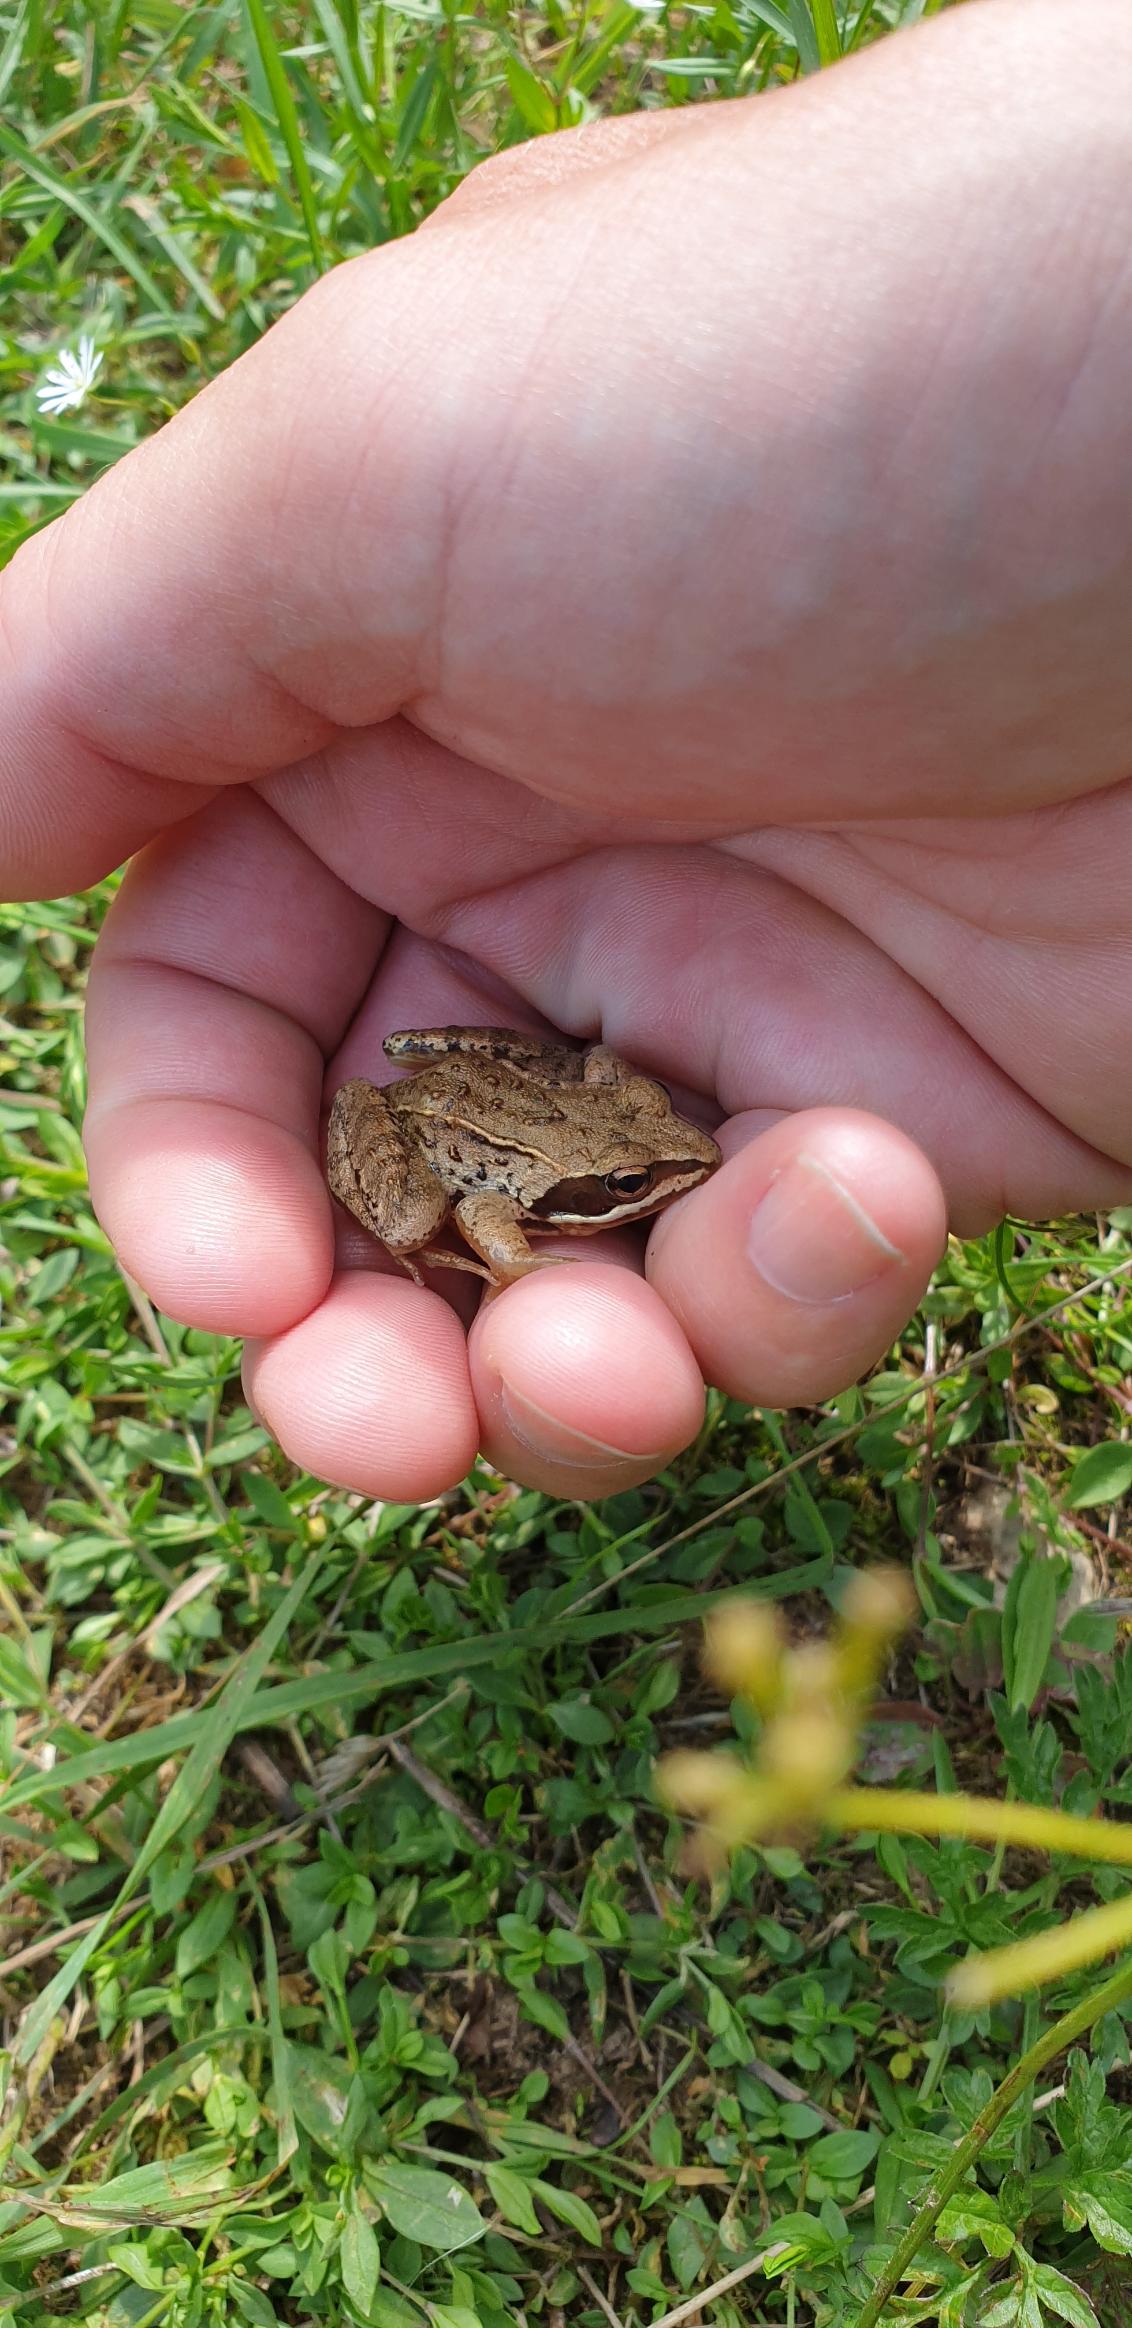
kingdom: Animalia
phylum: Chordata
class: Amphibia
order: Anura
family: Ranidae
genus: Rana
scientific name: Rana arvalis
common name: Spidssnudet frø
